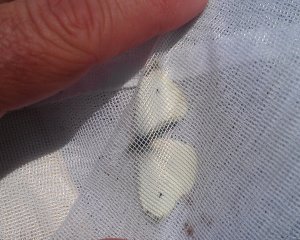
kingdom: Animalia
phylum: Arthropoda
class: Insecta
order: Lepidoptera
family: Pieridae
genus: Pieris
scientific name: Pieris rapae
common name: Cabbage White
